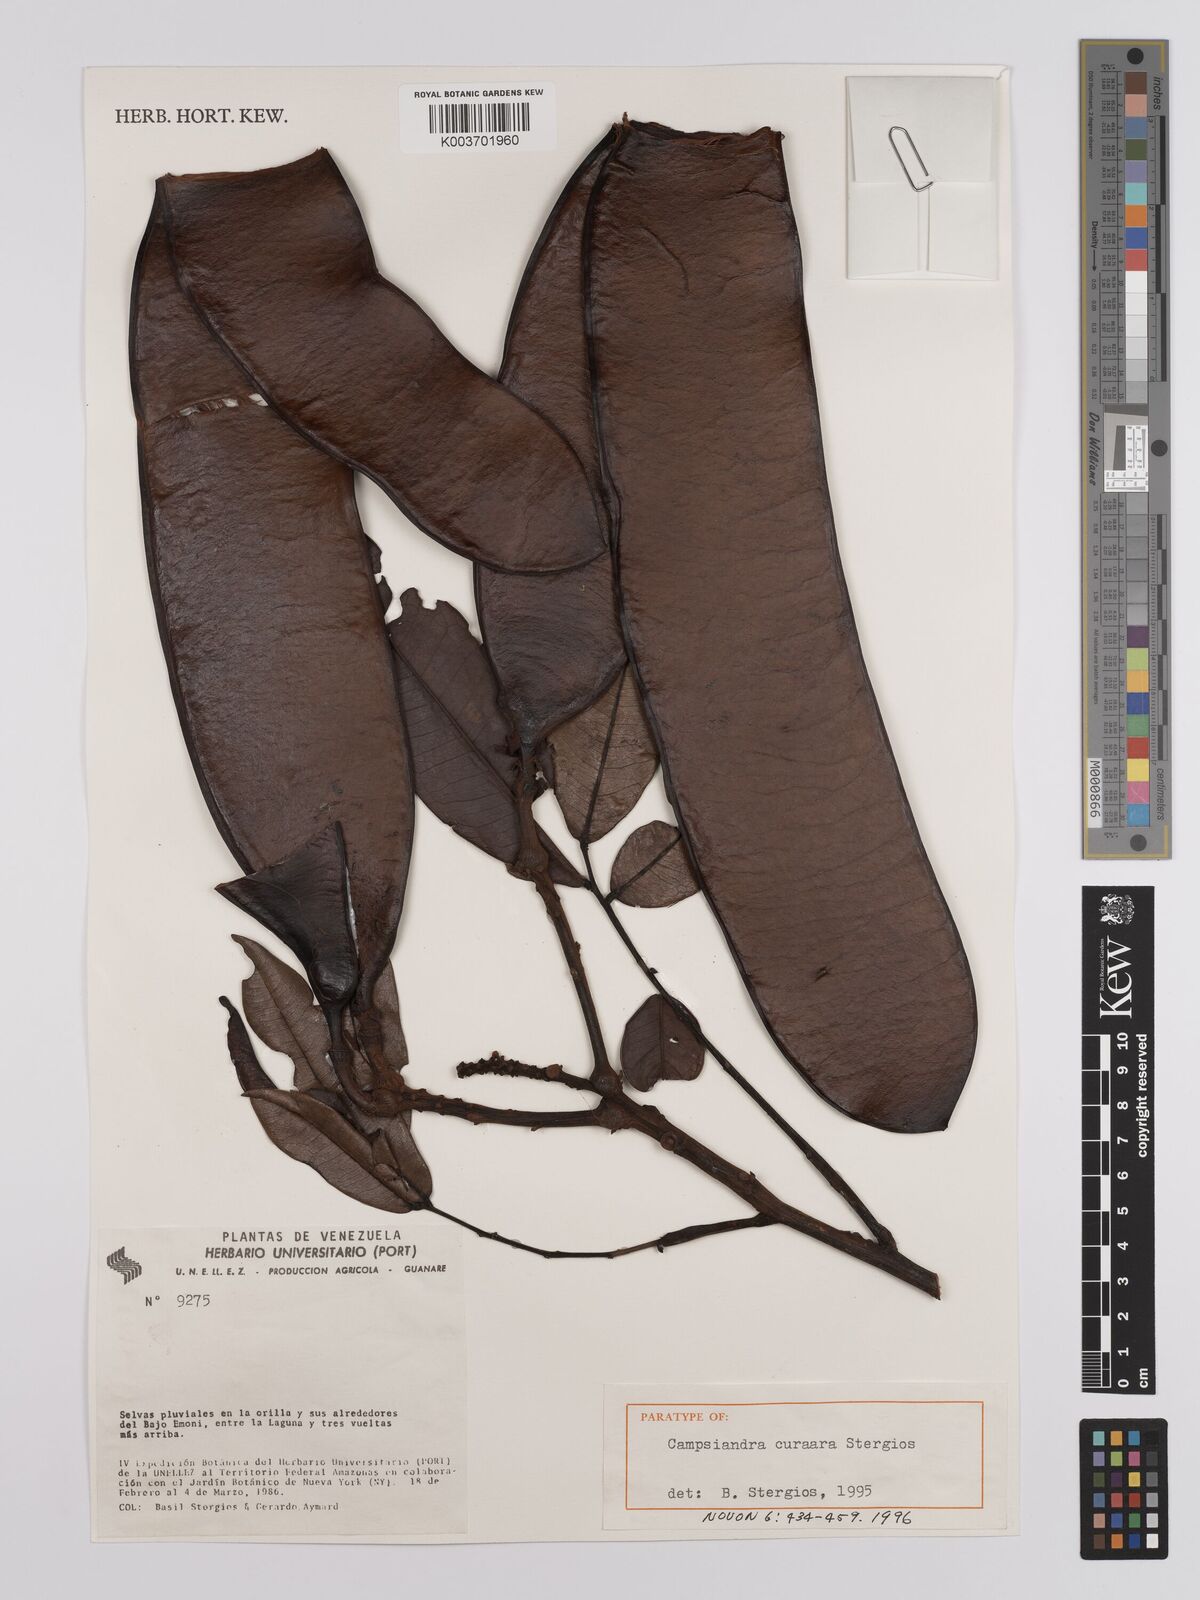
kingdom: Plantae
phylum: Tracheophyta
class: Magnoliopsida
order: Fabales
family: Fabaceae
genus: Campsiandra
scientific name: Campsiandra curaara
